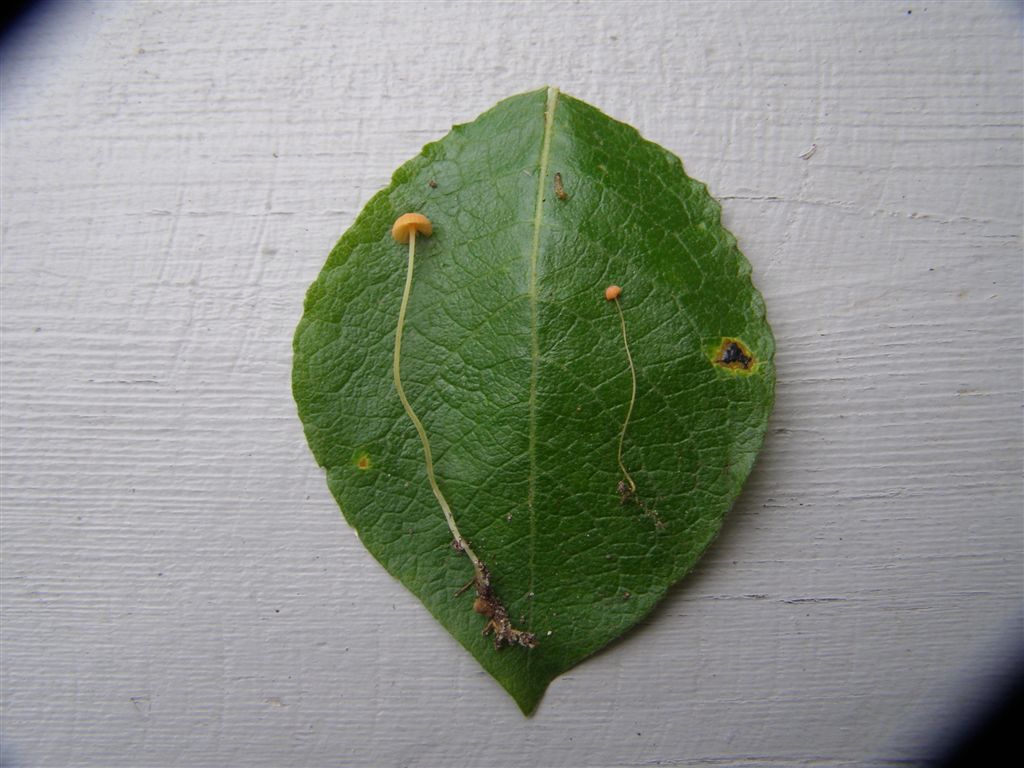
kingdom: Fungi
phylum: Basidiomycota
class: Agaricomycetes
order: Agaricales
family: Mycenaceae
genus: Mycena
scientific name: Mycena acicula
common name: orange huesvamp
